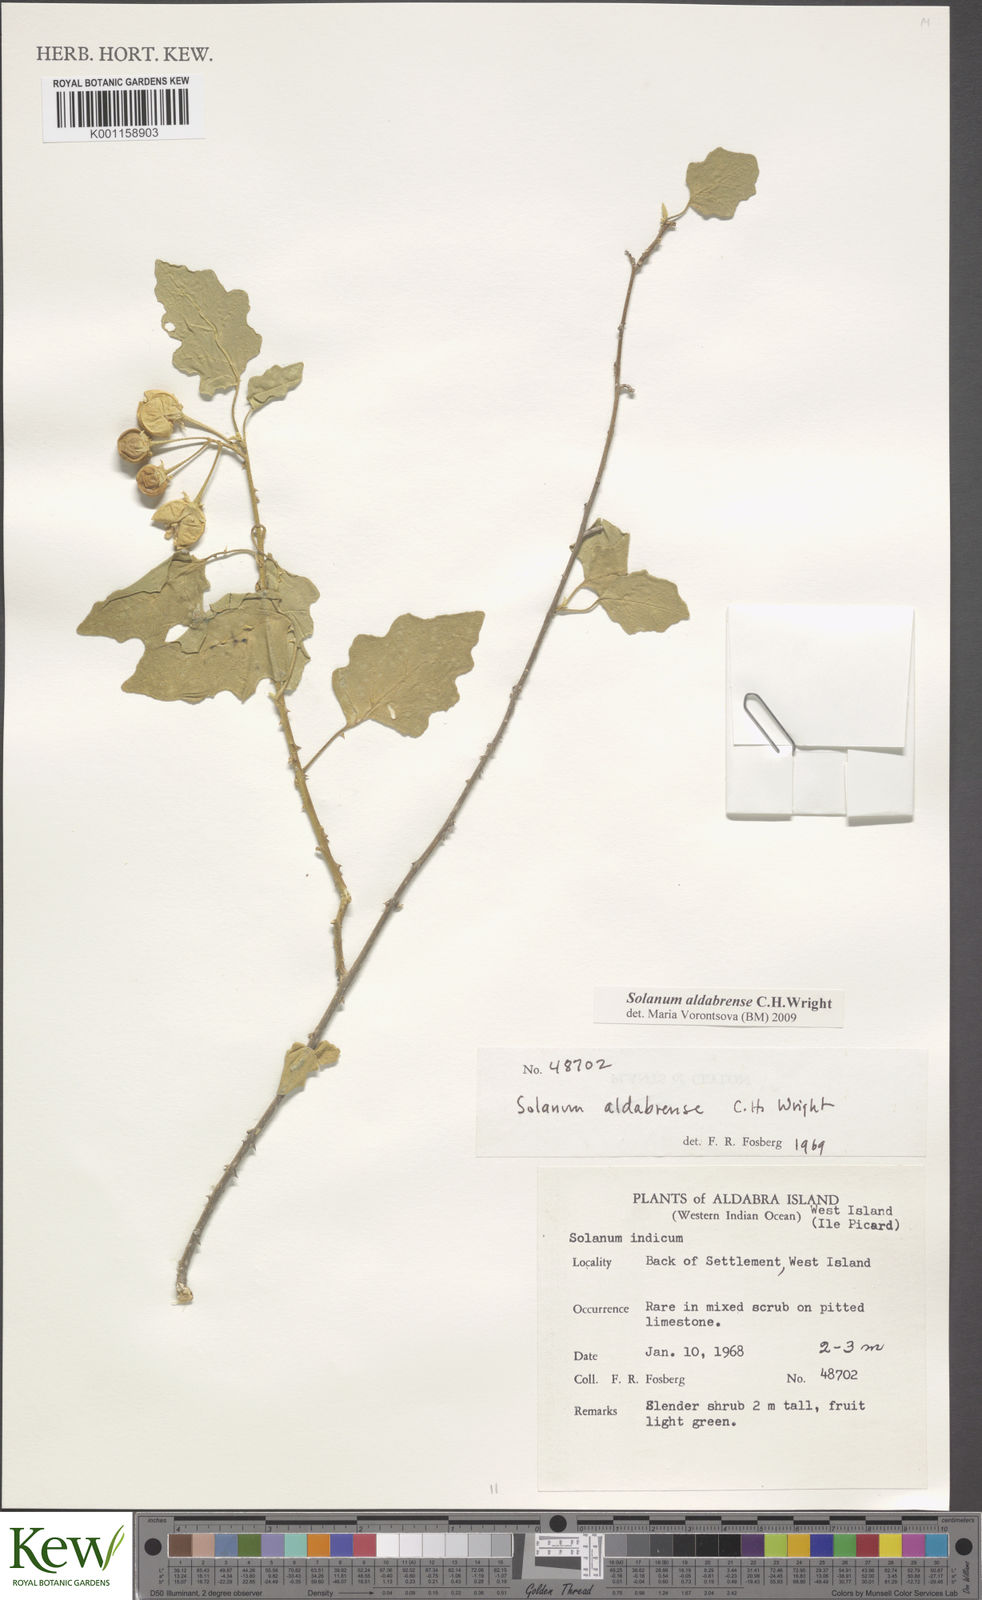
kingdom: Plantae
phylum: Tracheophyta
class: Magnoliopsida
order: Solanales
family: Solanaceae
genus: Solanum
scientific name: Solanum aldabrense
